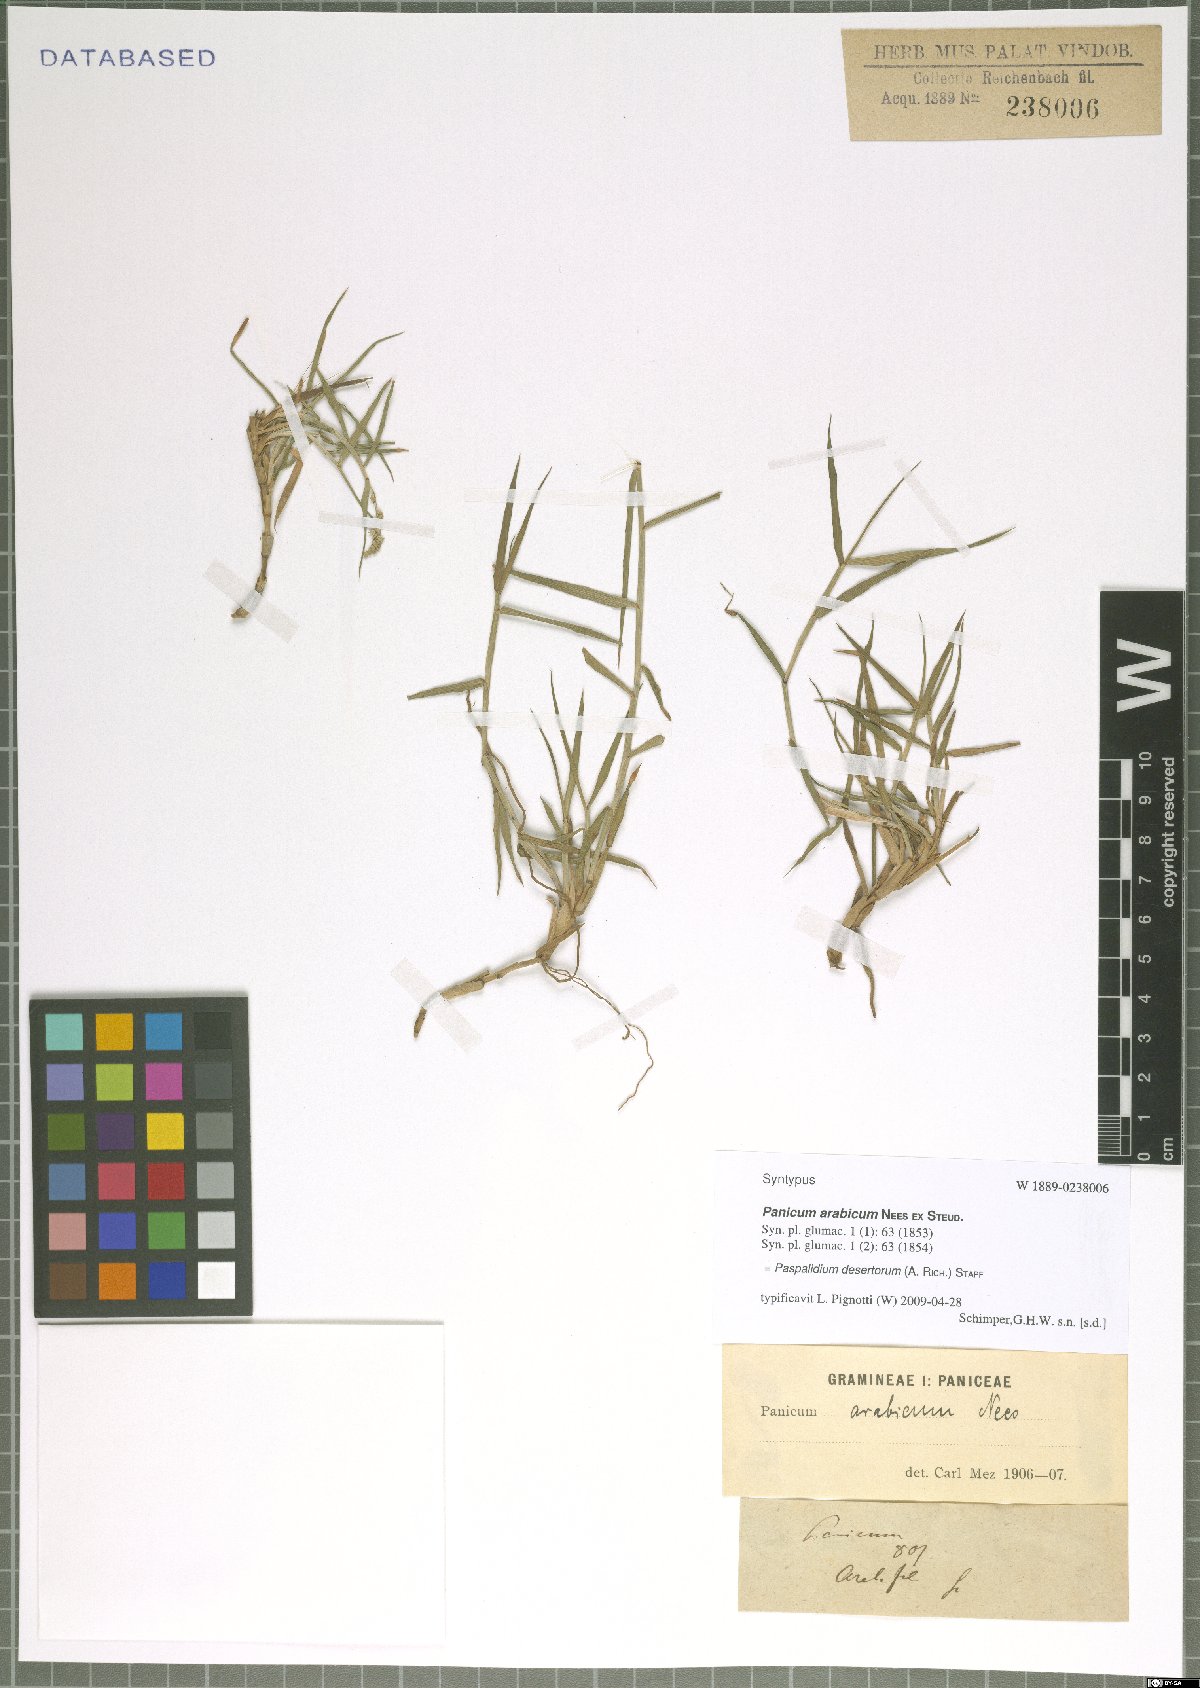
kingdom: Plantae
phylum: Tracheophyta
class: Liliopsida
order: Poales
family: Poaceae
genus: Setaria
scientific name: Setaria desertorum
